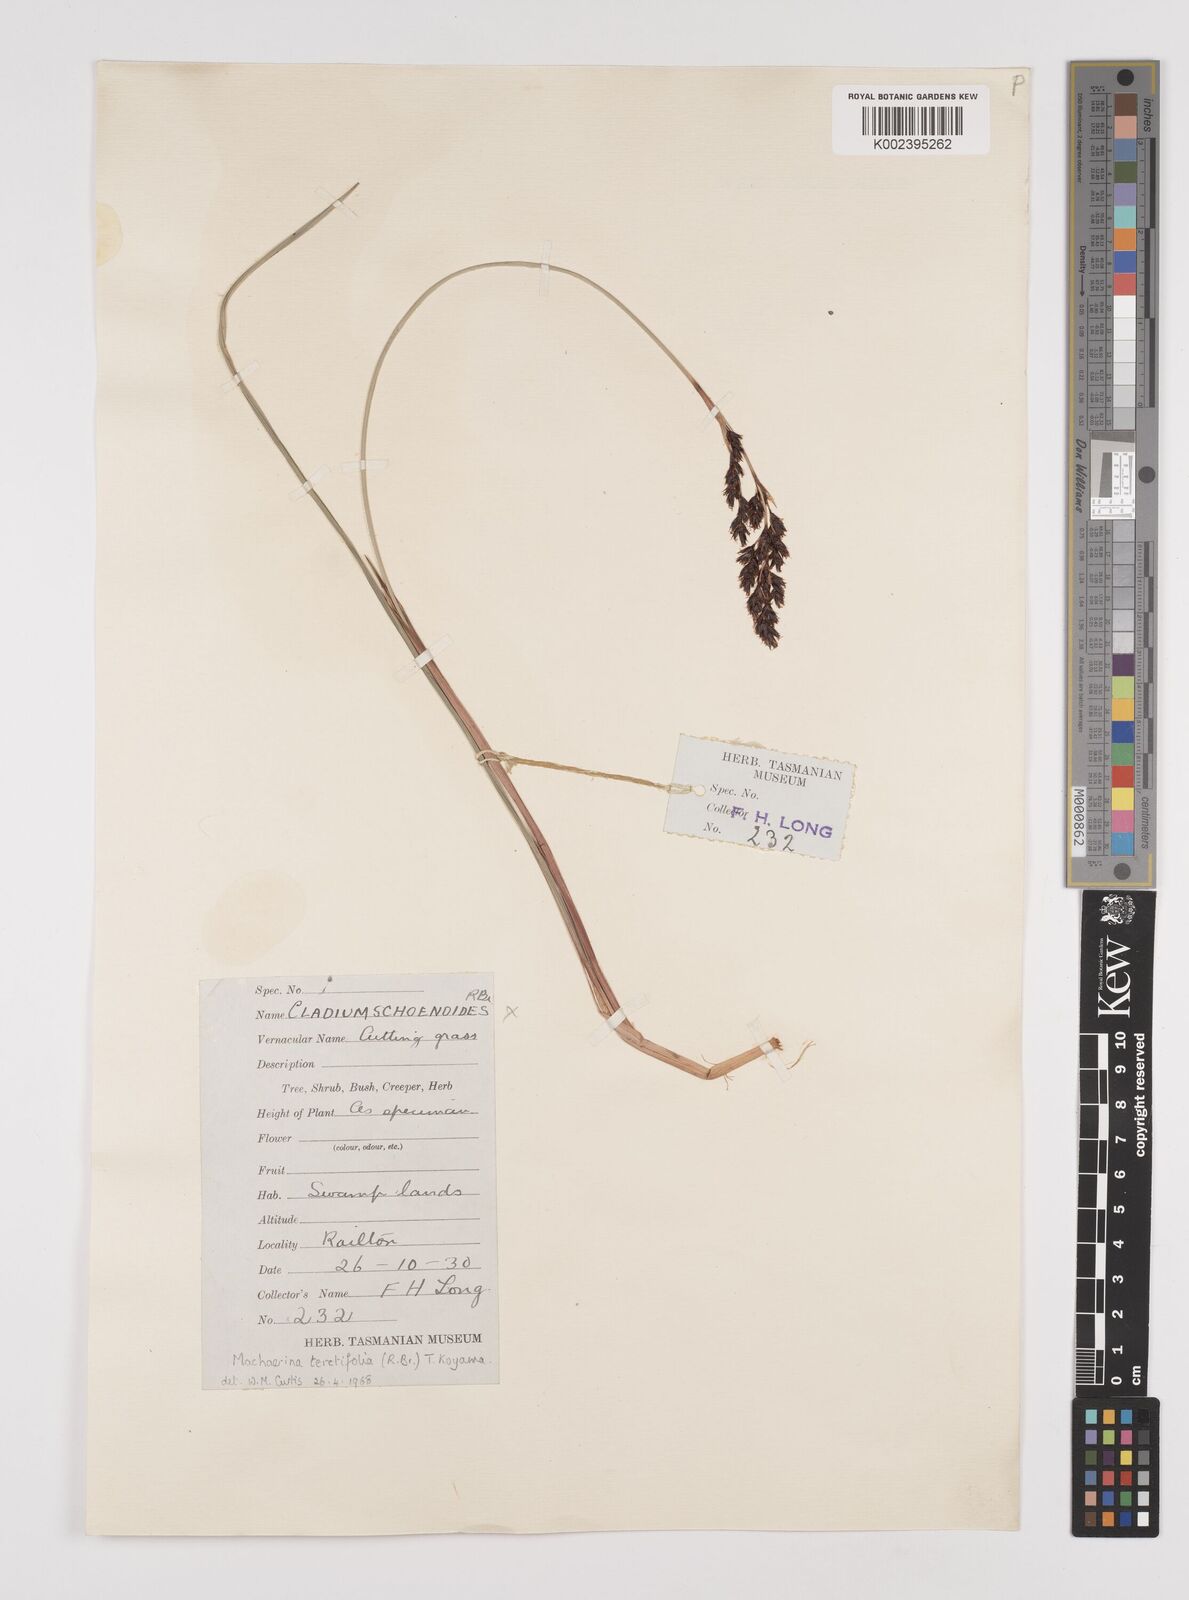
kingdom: Plantae
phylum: Tracheophyta
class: Liliopsida
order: Poales
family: Cyperaceae
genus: Machaerina
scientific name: Machaerina tetragona
